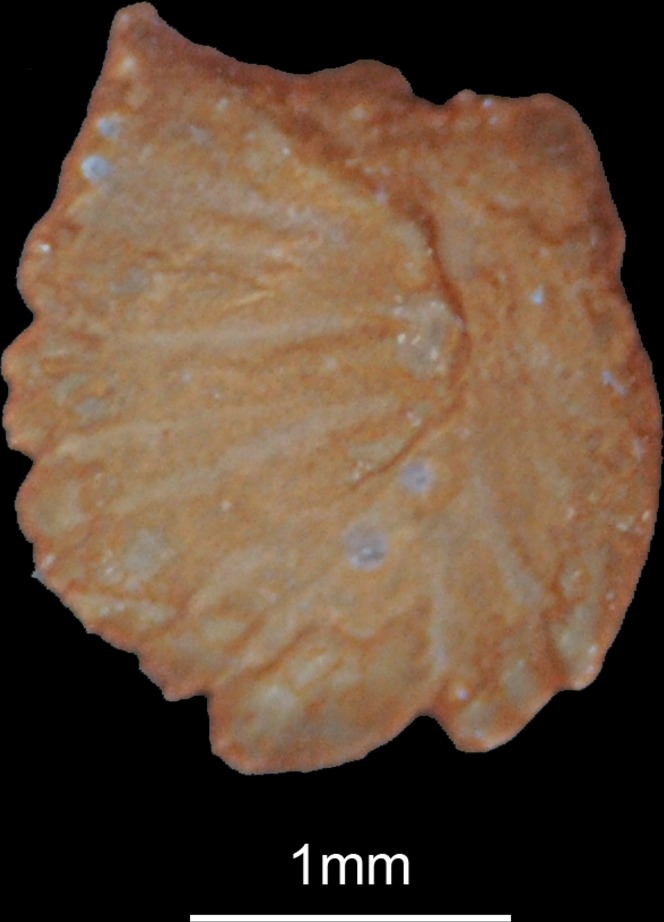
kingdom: Animalia
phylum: Chordata
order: Cypriniformes
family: Cyprinidae
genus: Luciobarbus
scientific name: Luciobarbus xanthopterus
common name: Yellowfin barbel
